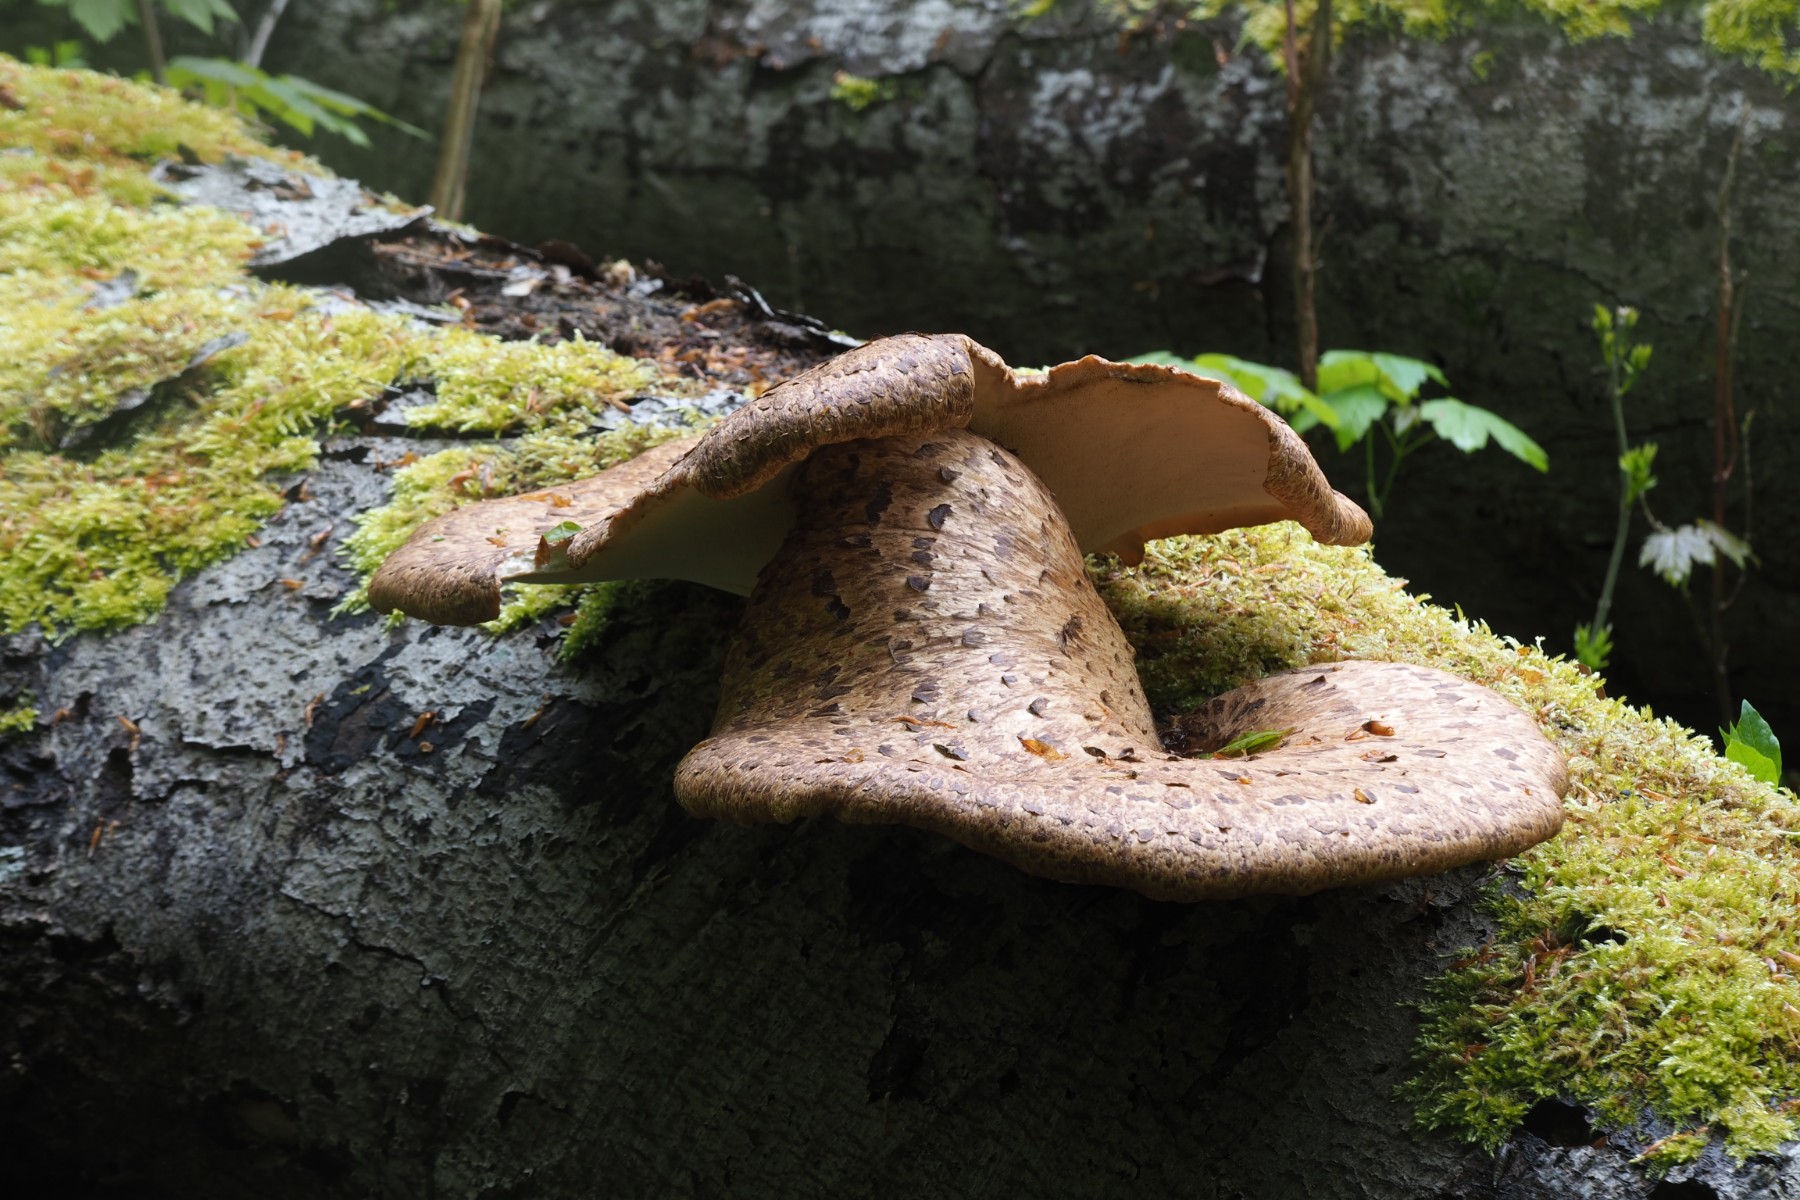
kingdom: Fungi
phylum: Basidiomycota
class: Agaricomycetes
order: Polyporales
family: Polyporaceae
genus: Cerioporus
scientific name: Cerioporus squamosus
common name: skællet stilkporesvamp
